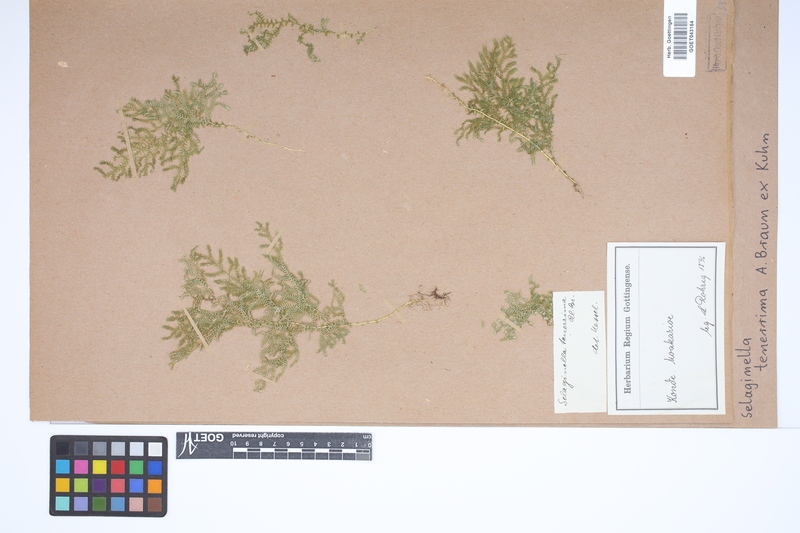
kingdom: Plantae
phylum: Tracheophyta
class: Lycopodiopsida
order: Selaginellales
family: Selaginellaceae
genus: Selaginella
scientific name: Selaginella tenerrima
